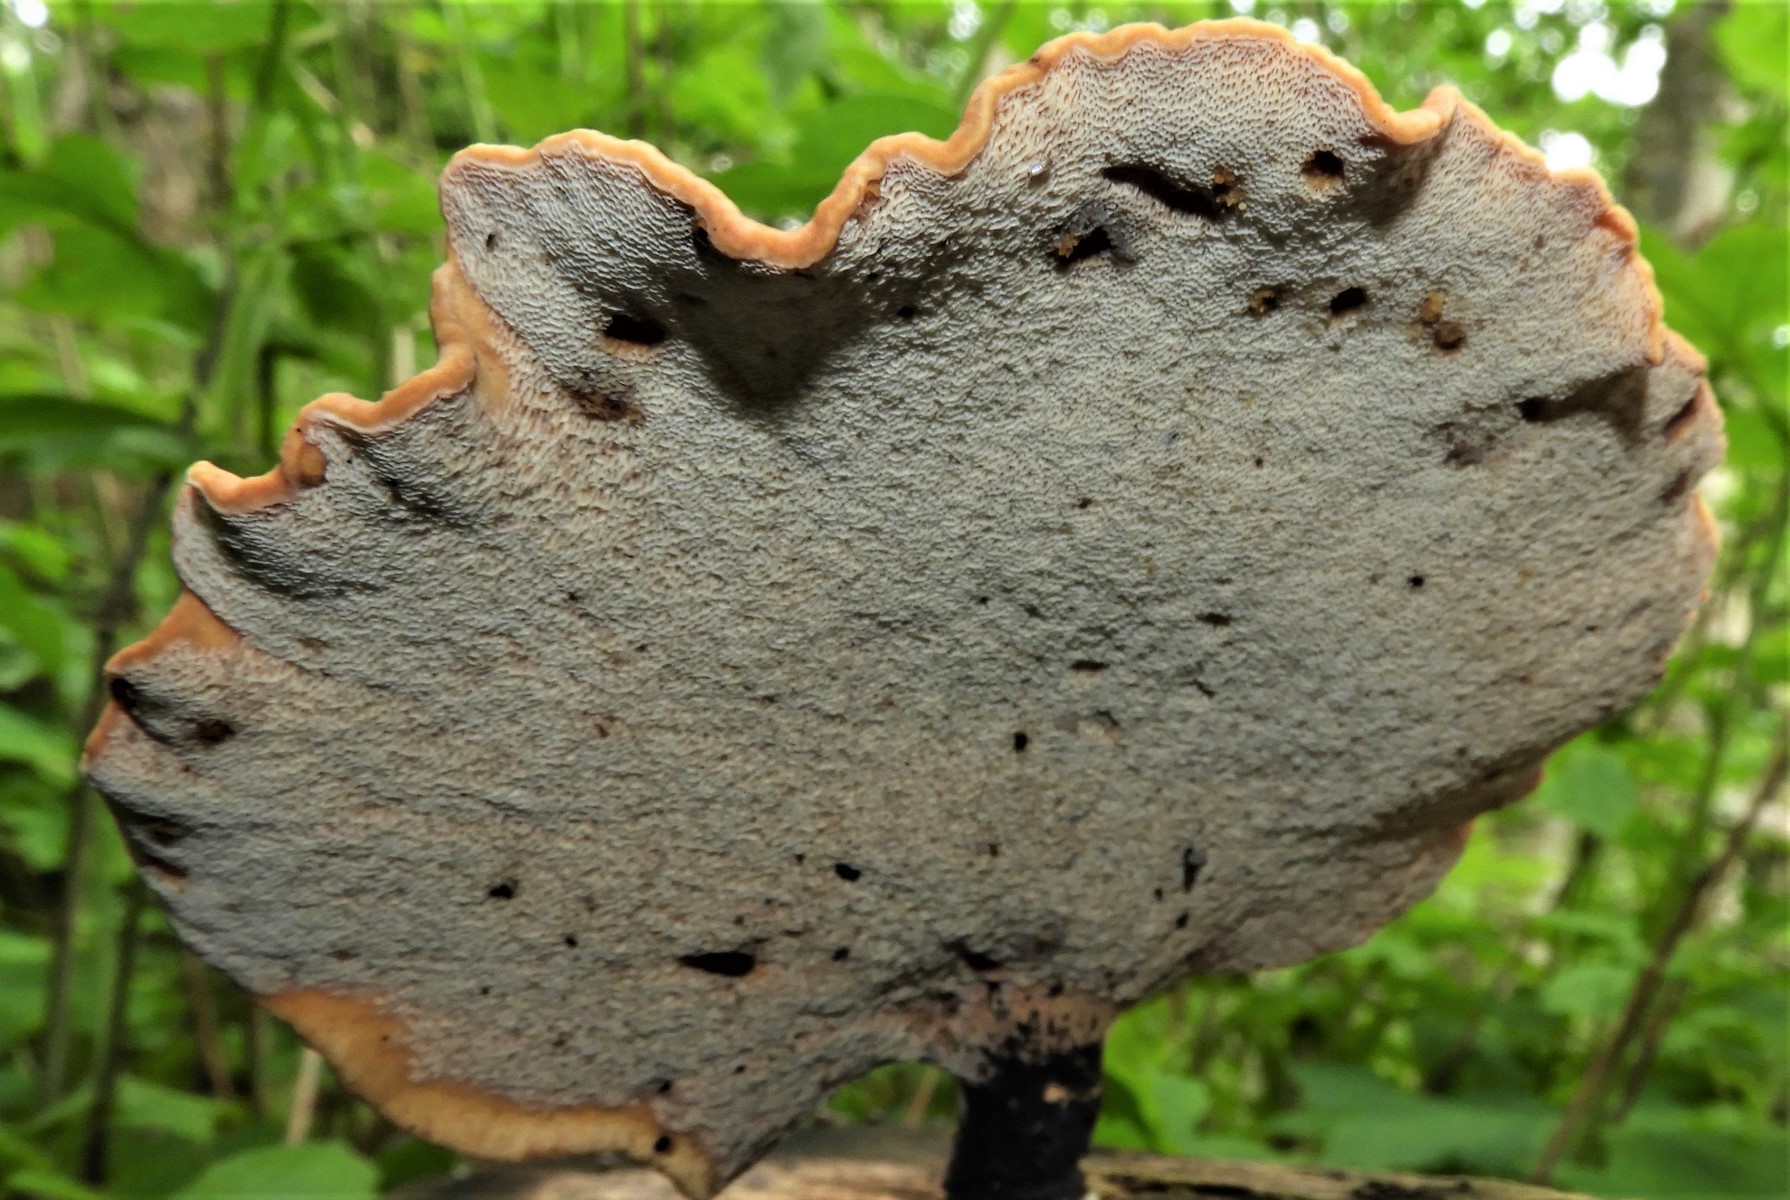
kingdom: Fungi
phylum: Basidiomycota
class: Agaricomycetes
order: Polyporales
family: Polyporaceae
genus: Cerioporus
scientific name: Cerioporus varius
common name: foranderlig stilkporesvamp
